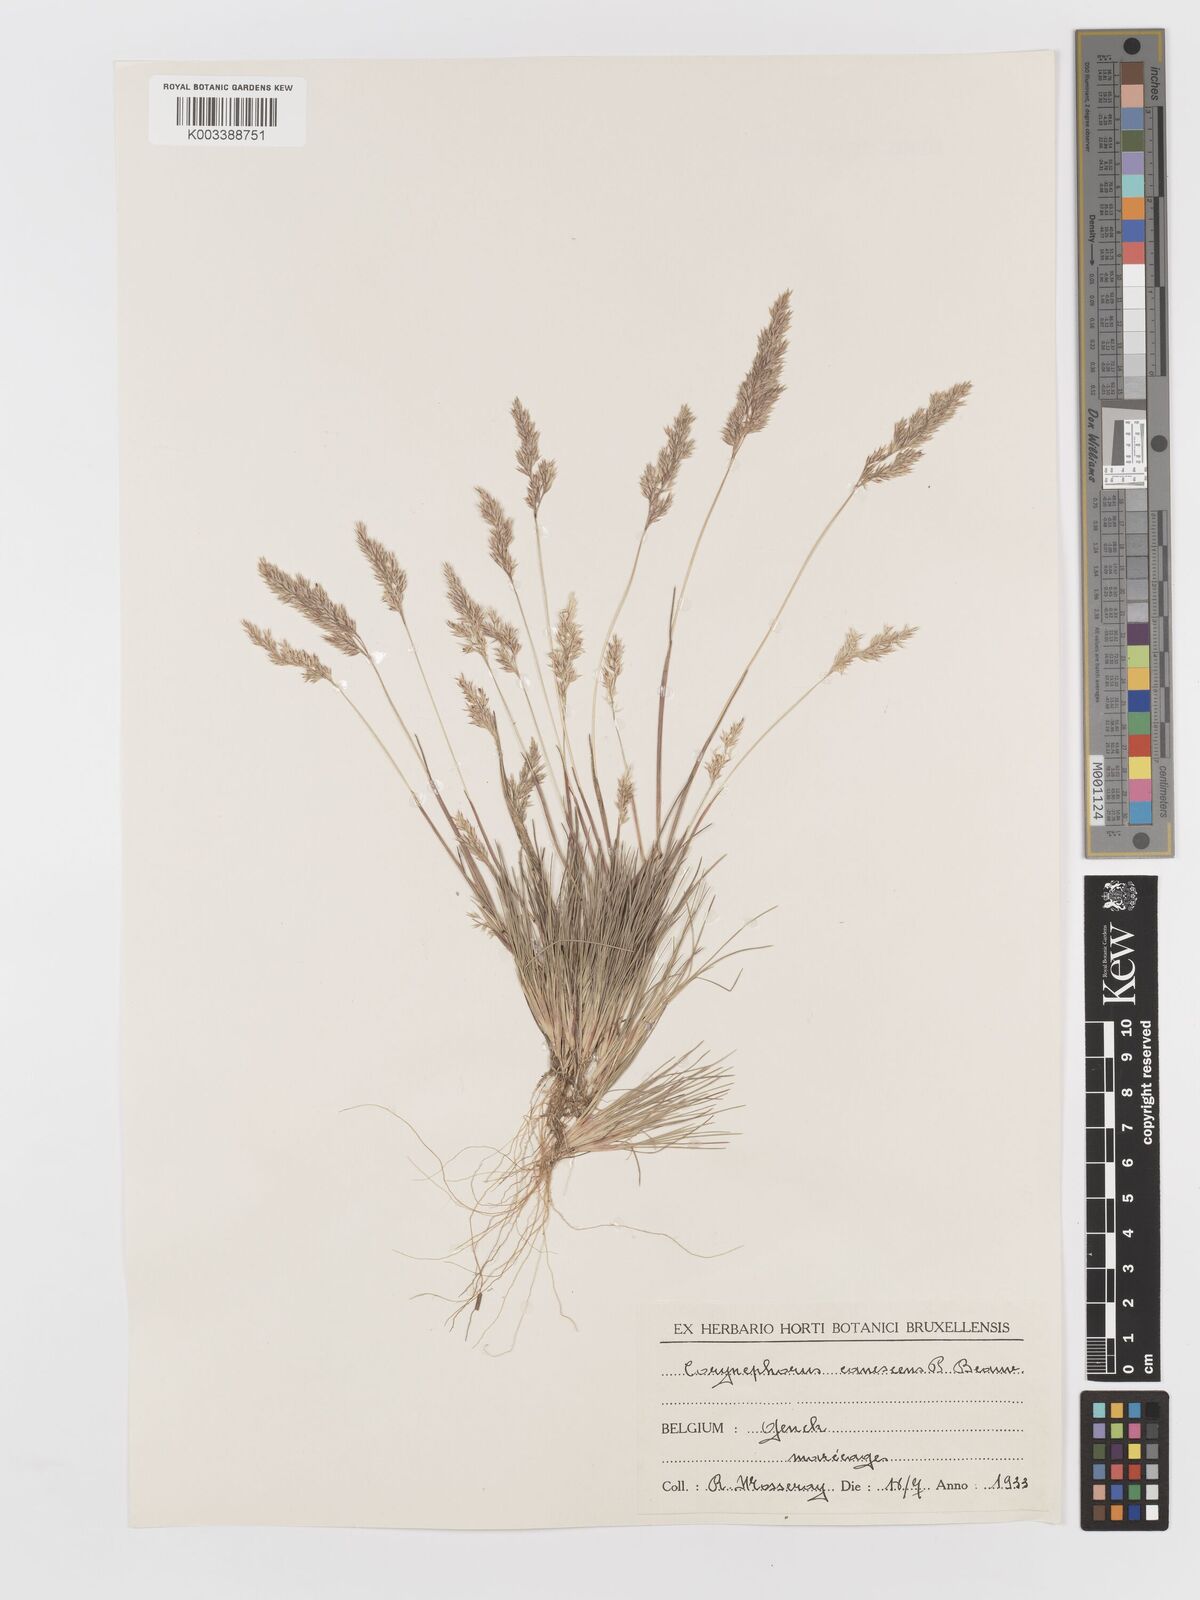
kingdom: Plantae
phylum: Tracheophyta
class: Liliopsida
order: Poales
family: Poaceae
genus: Corynephorus
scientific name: Corynephorus canescens
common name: Grey hair-grass
